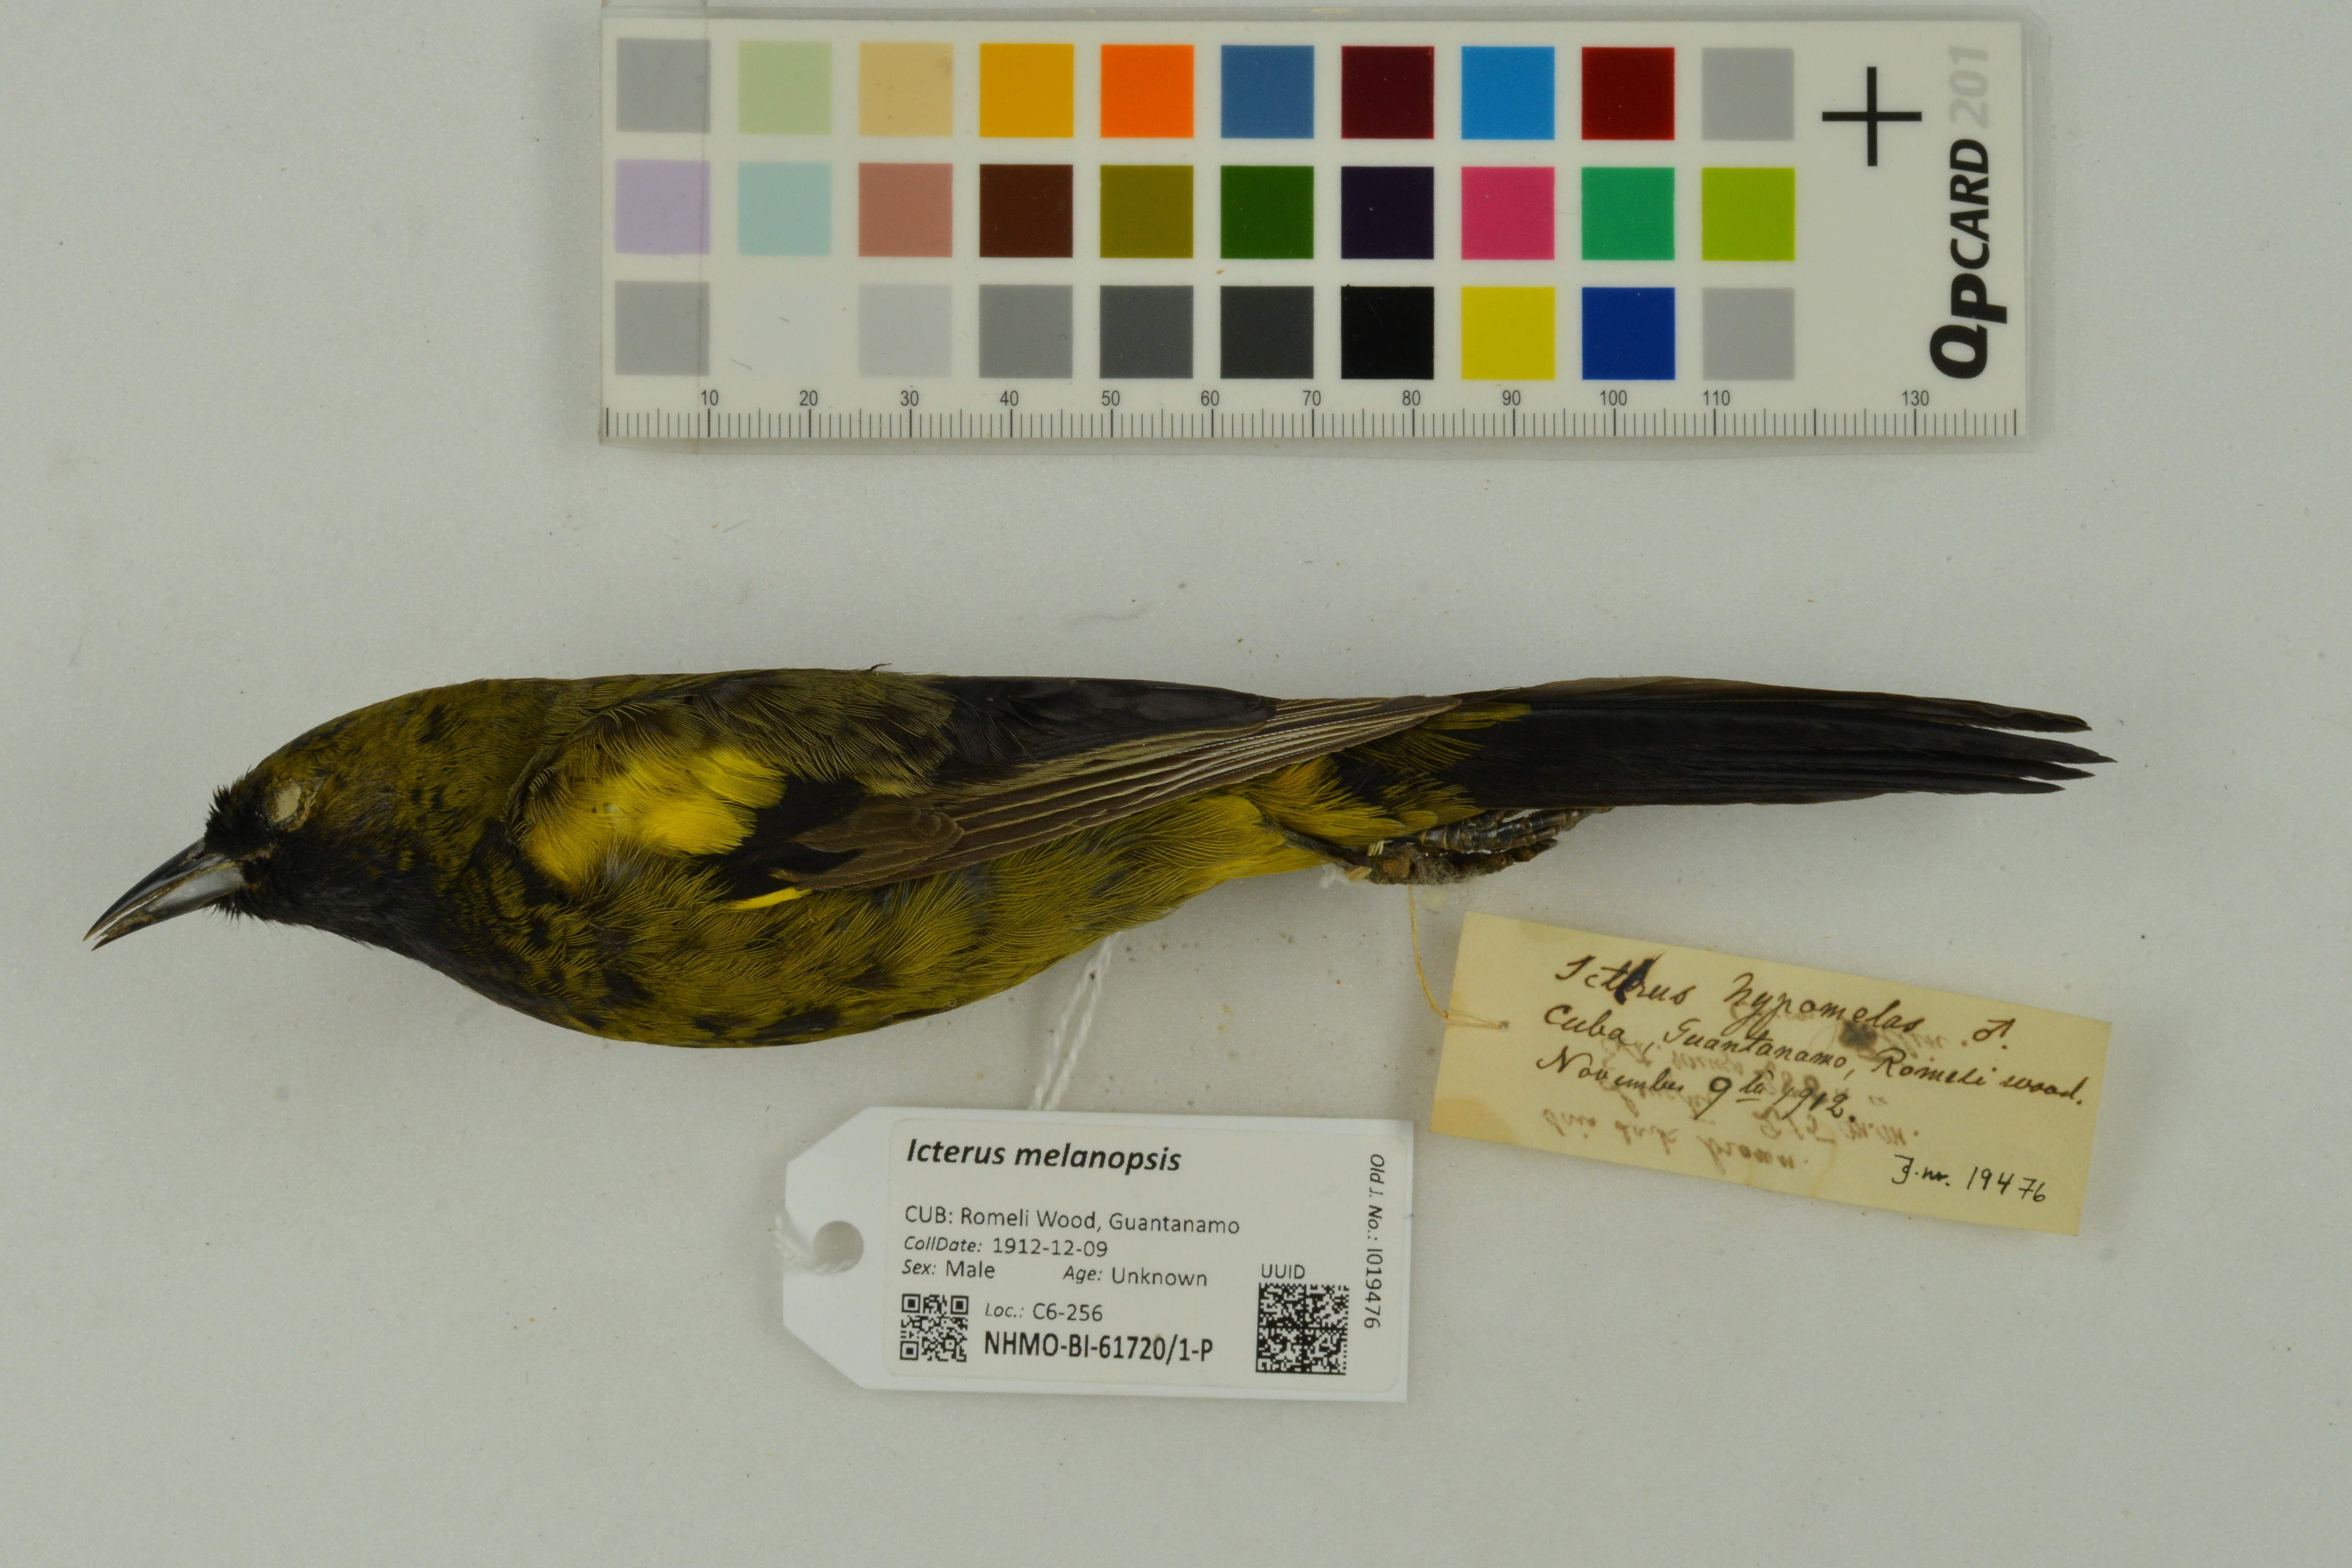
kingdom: Animalia
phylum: Chordata
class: Aves
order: Passeriformes
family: Icteridae
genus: Icterus
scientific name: Icterus dominicensis
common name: Hispaniolan oriole
